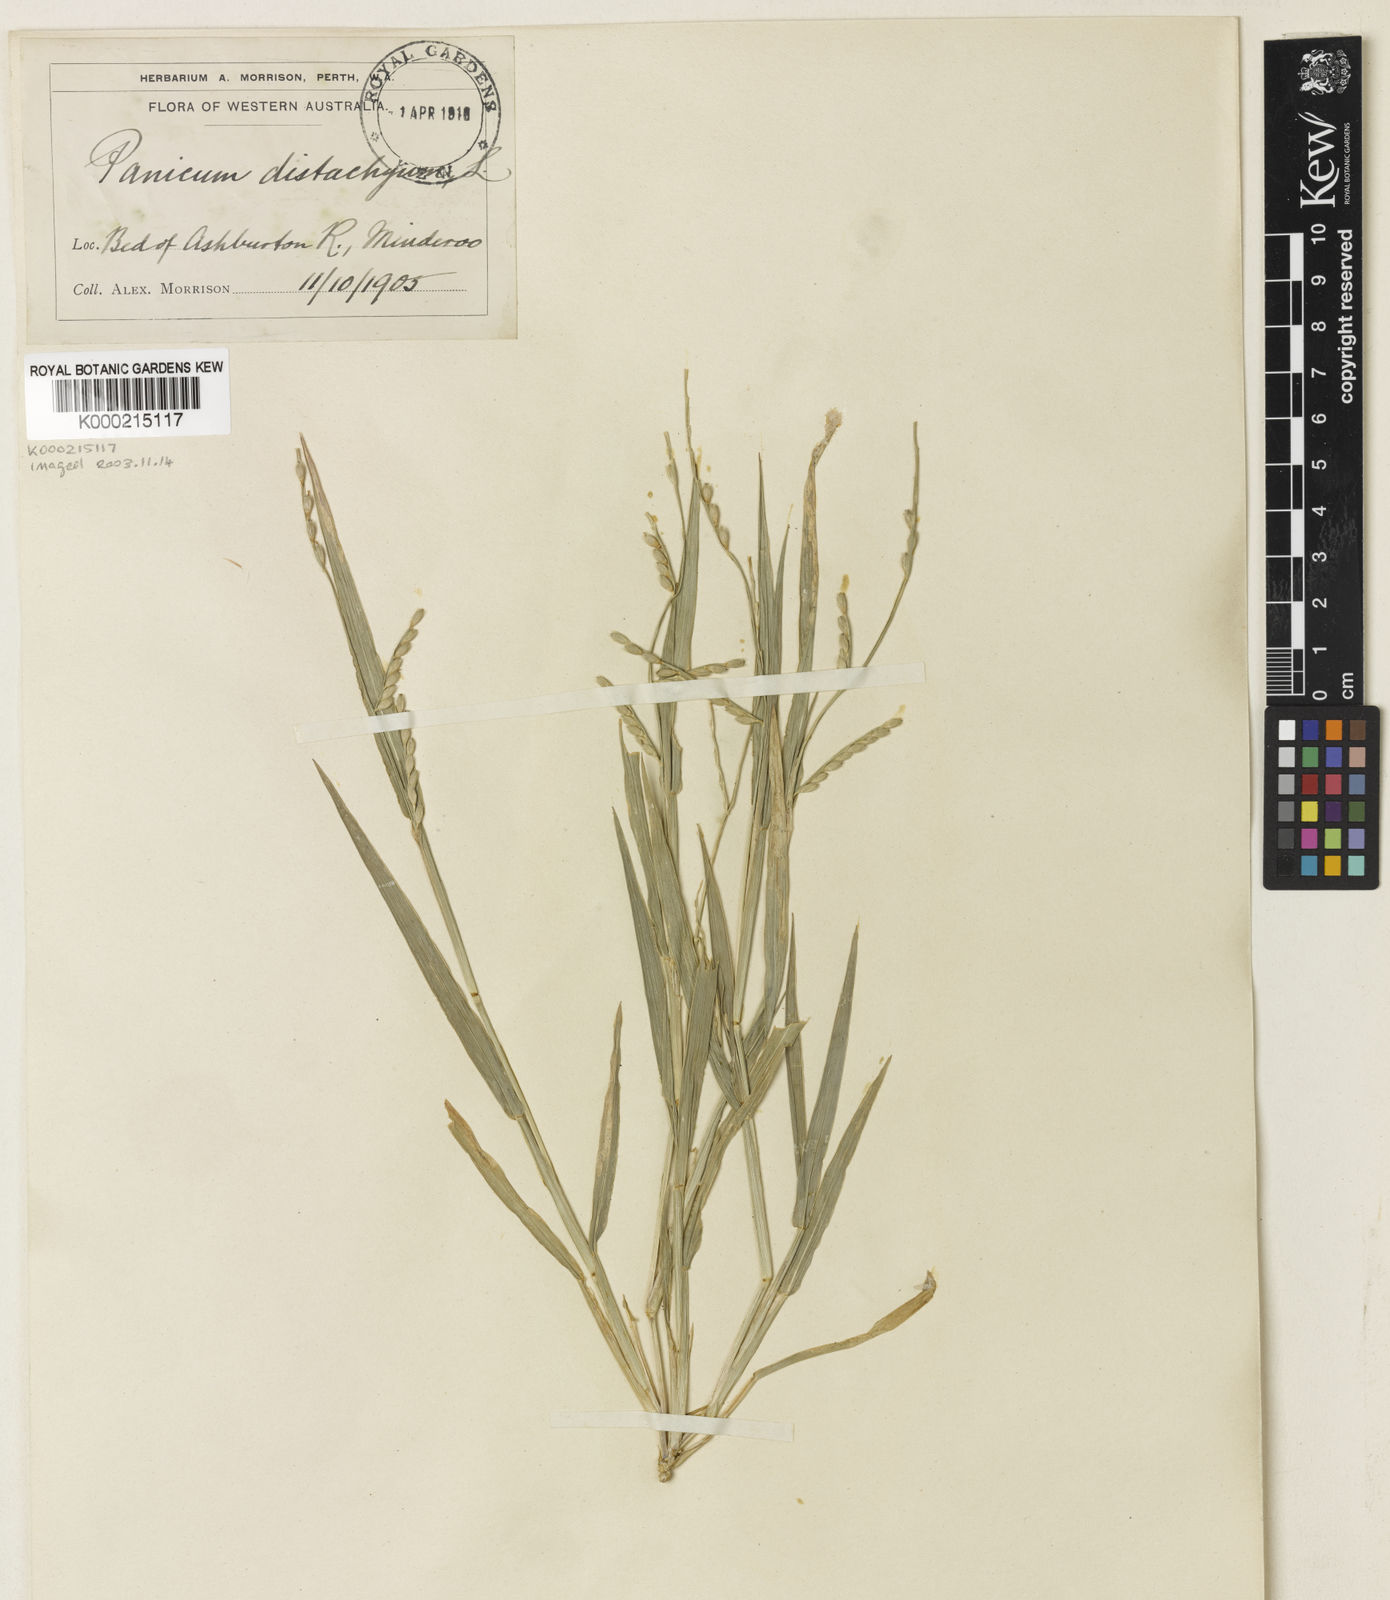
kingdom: Plantae
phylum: Tracheophyta
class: Liliopsida
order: Poales
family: Poaceae
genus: Urochloa
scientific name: Urochloa piligera
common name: Wattle signalgrass
